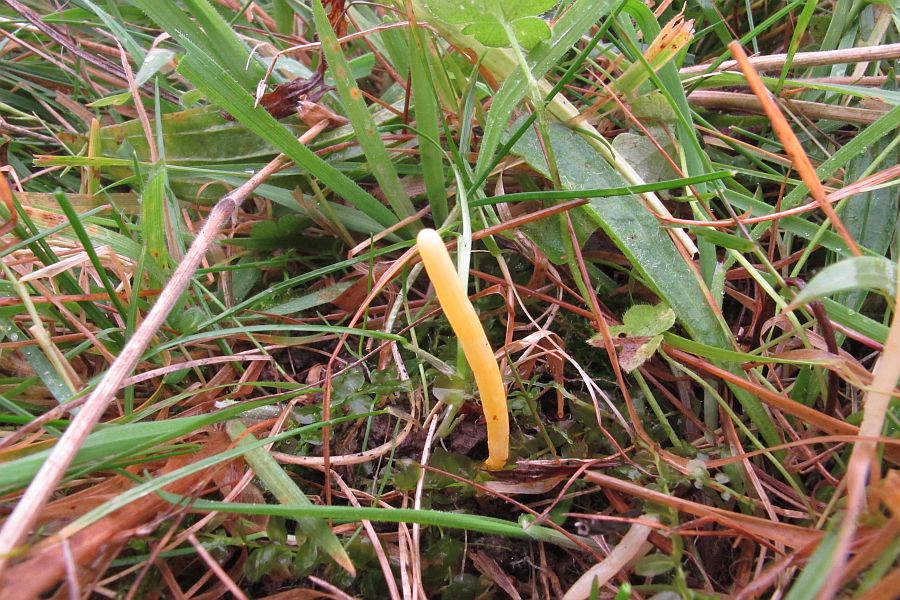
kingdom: Fungi
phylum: Basidiomycota
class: Agaricomycetes
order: Agaricales
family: Clavariaceae
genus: Clavulinopsis
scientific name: Clavulinopsis helvola
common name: orangegul køllesvamp
